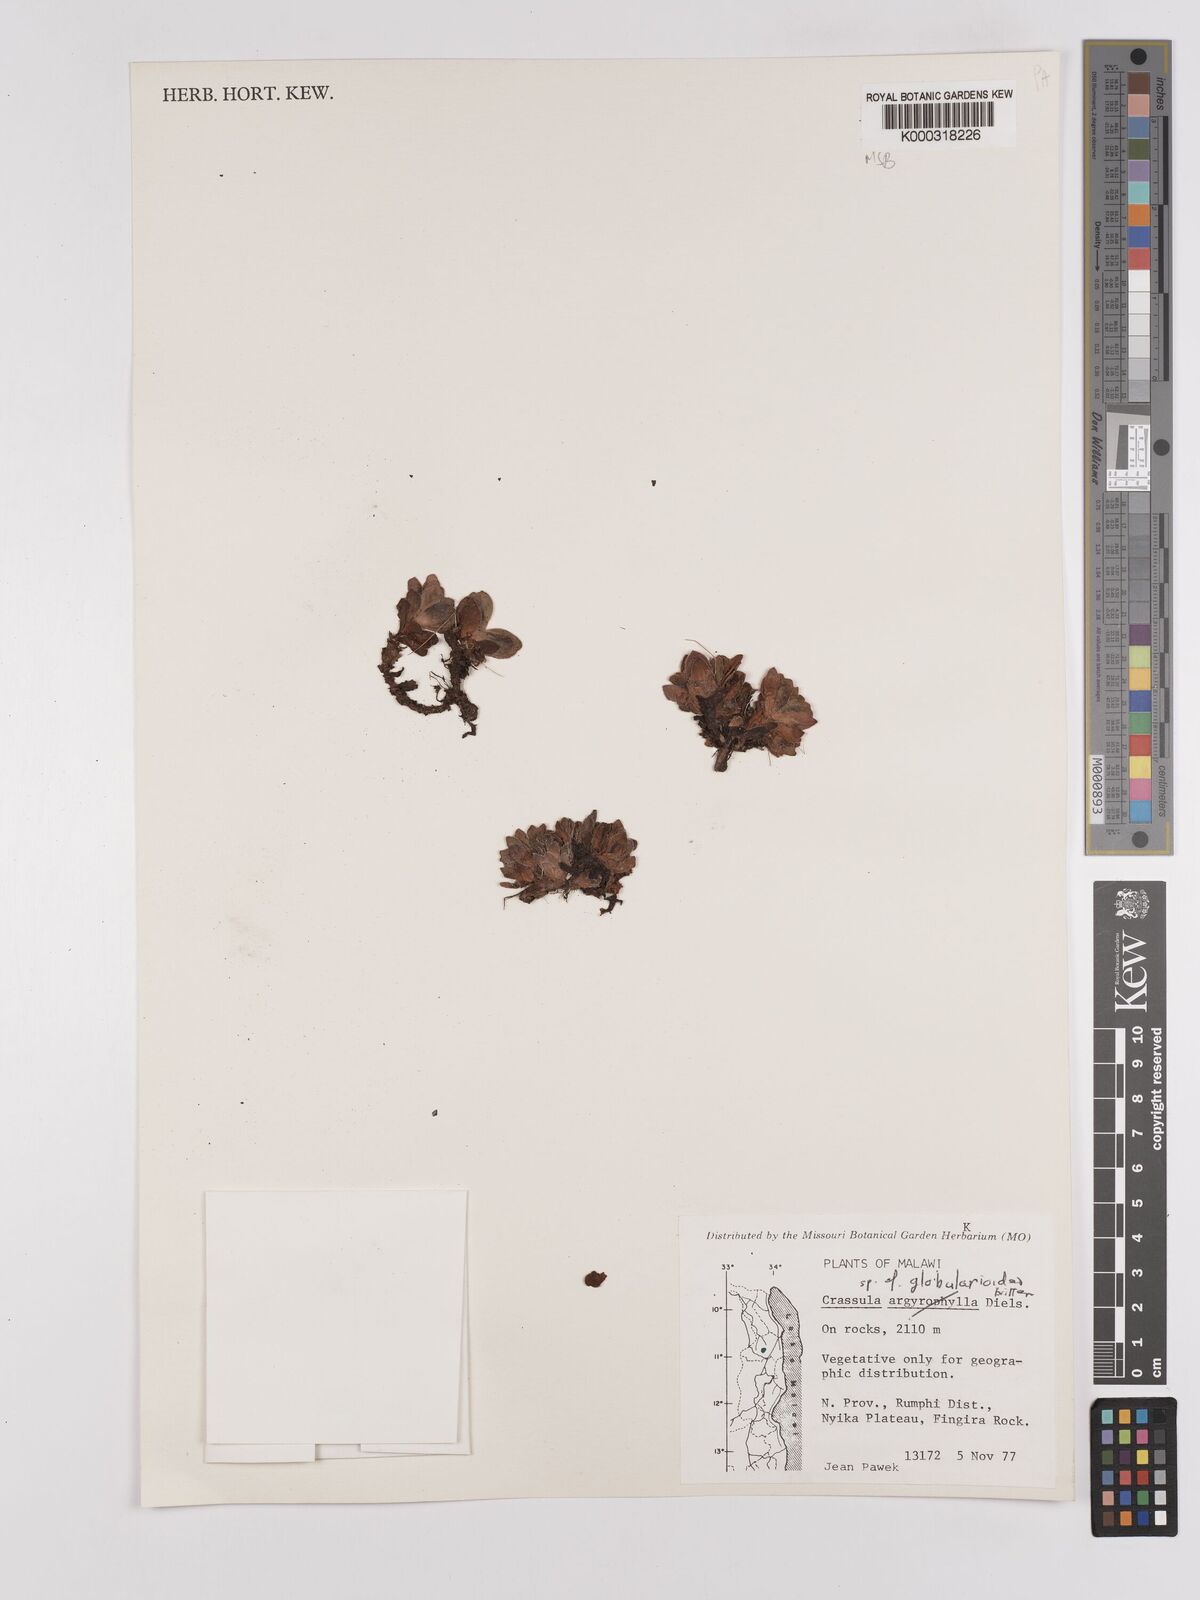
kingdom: Plantae
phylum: Tracheophyta
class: Magnoliopsida
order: Saxifragales
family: Crassulaceae
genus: Crassula
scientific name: Crassula globularioides
